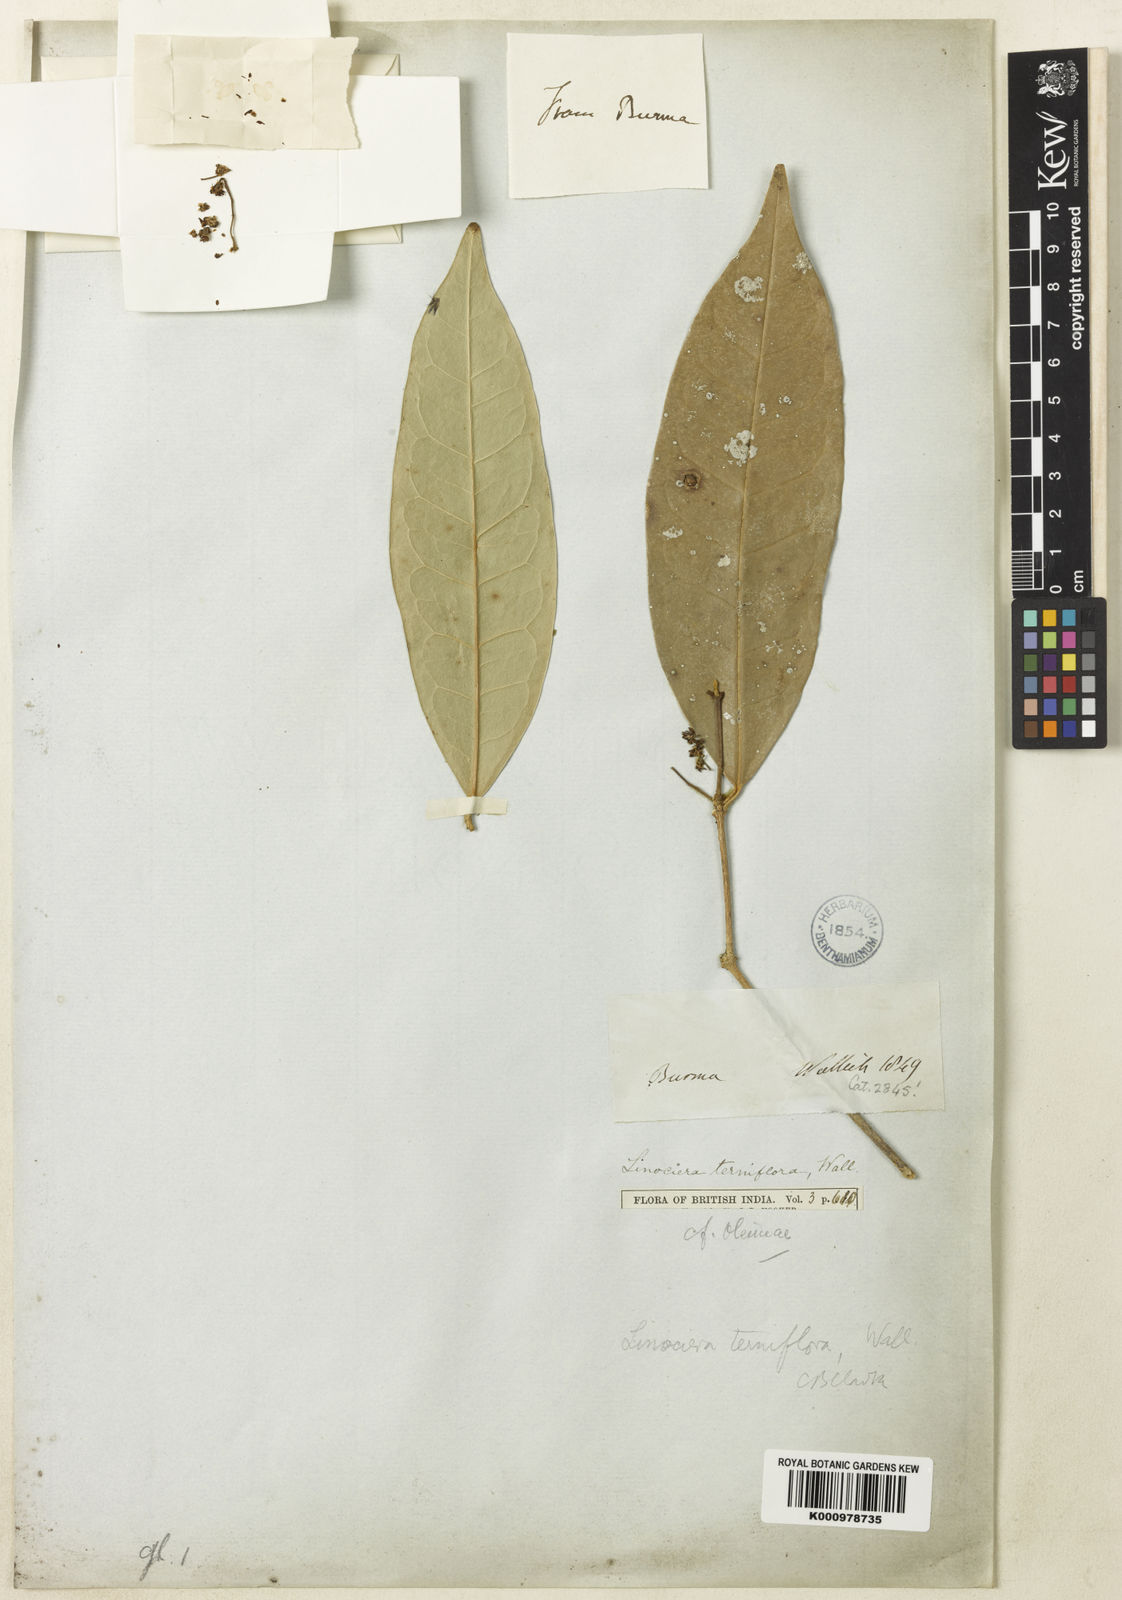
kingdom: Plantae
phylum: Tracheophyta
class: Magnoliopsida
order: Lamiales
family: Oleaceae
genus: Chionanthus
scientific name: Chionanthus mala-elengi
